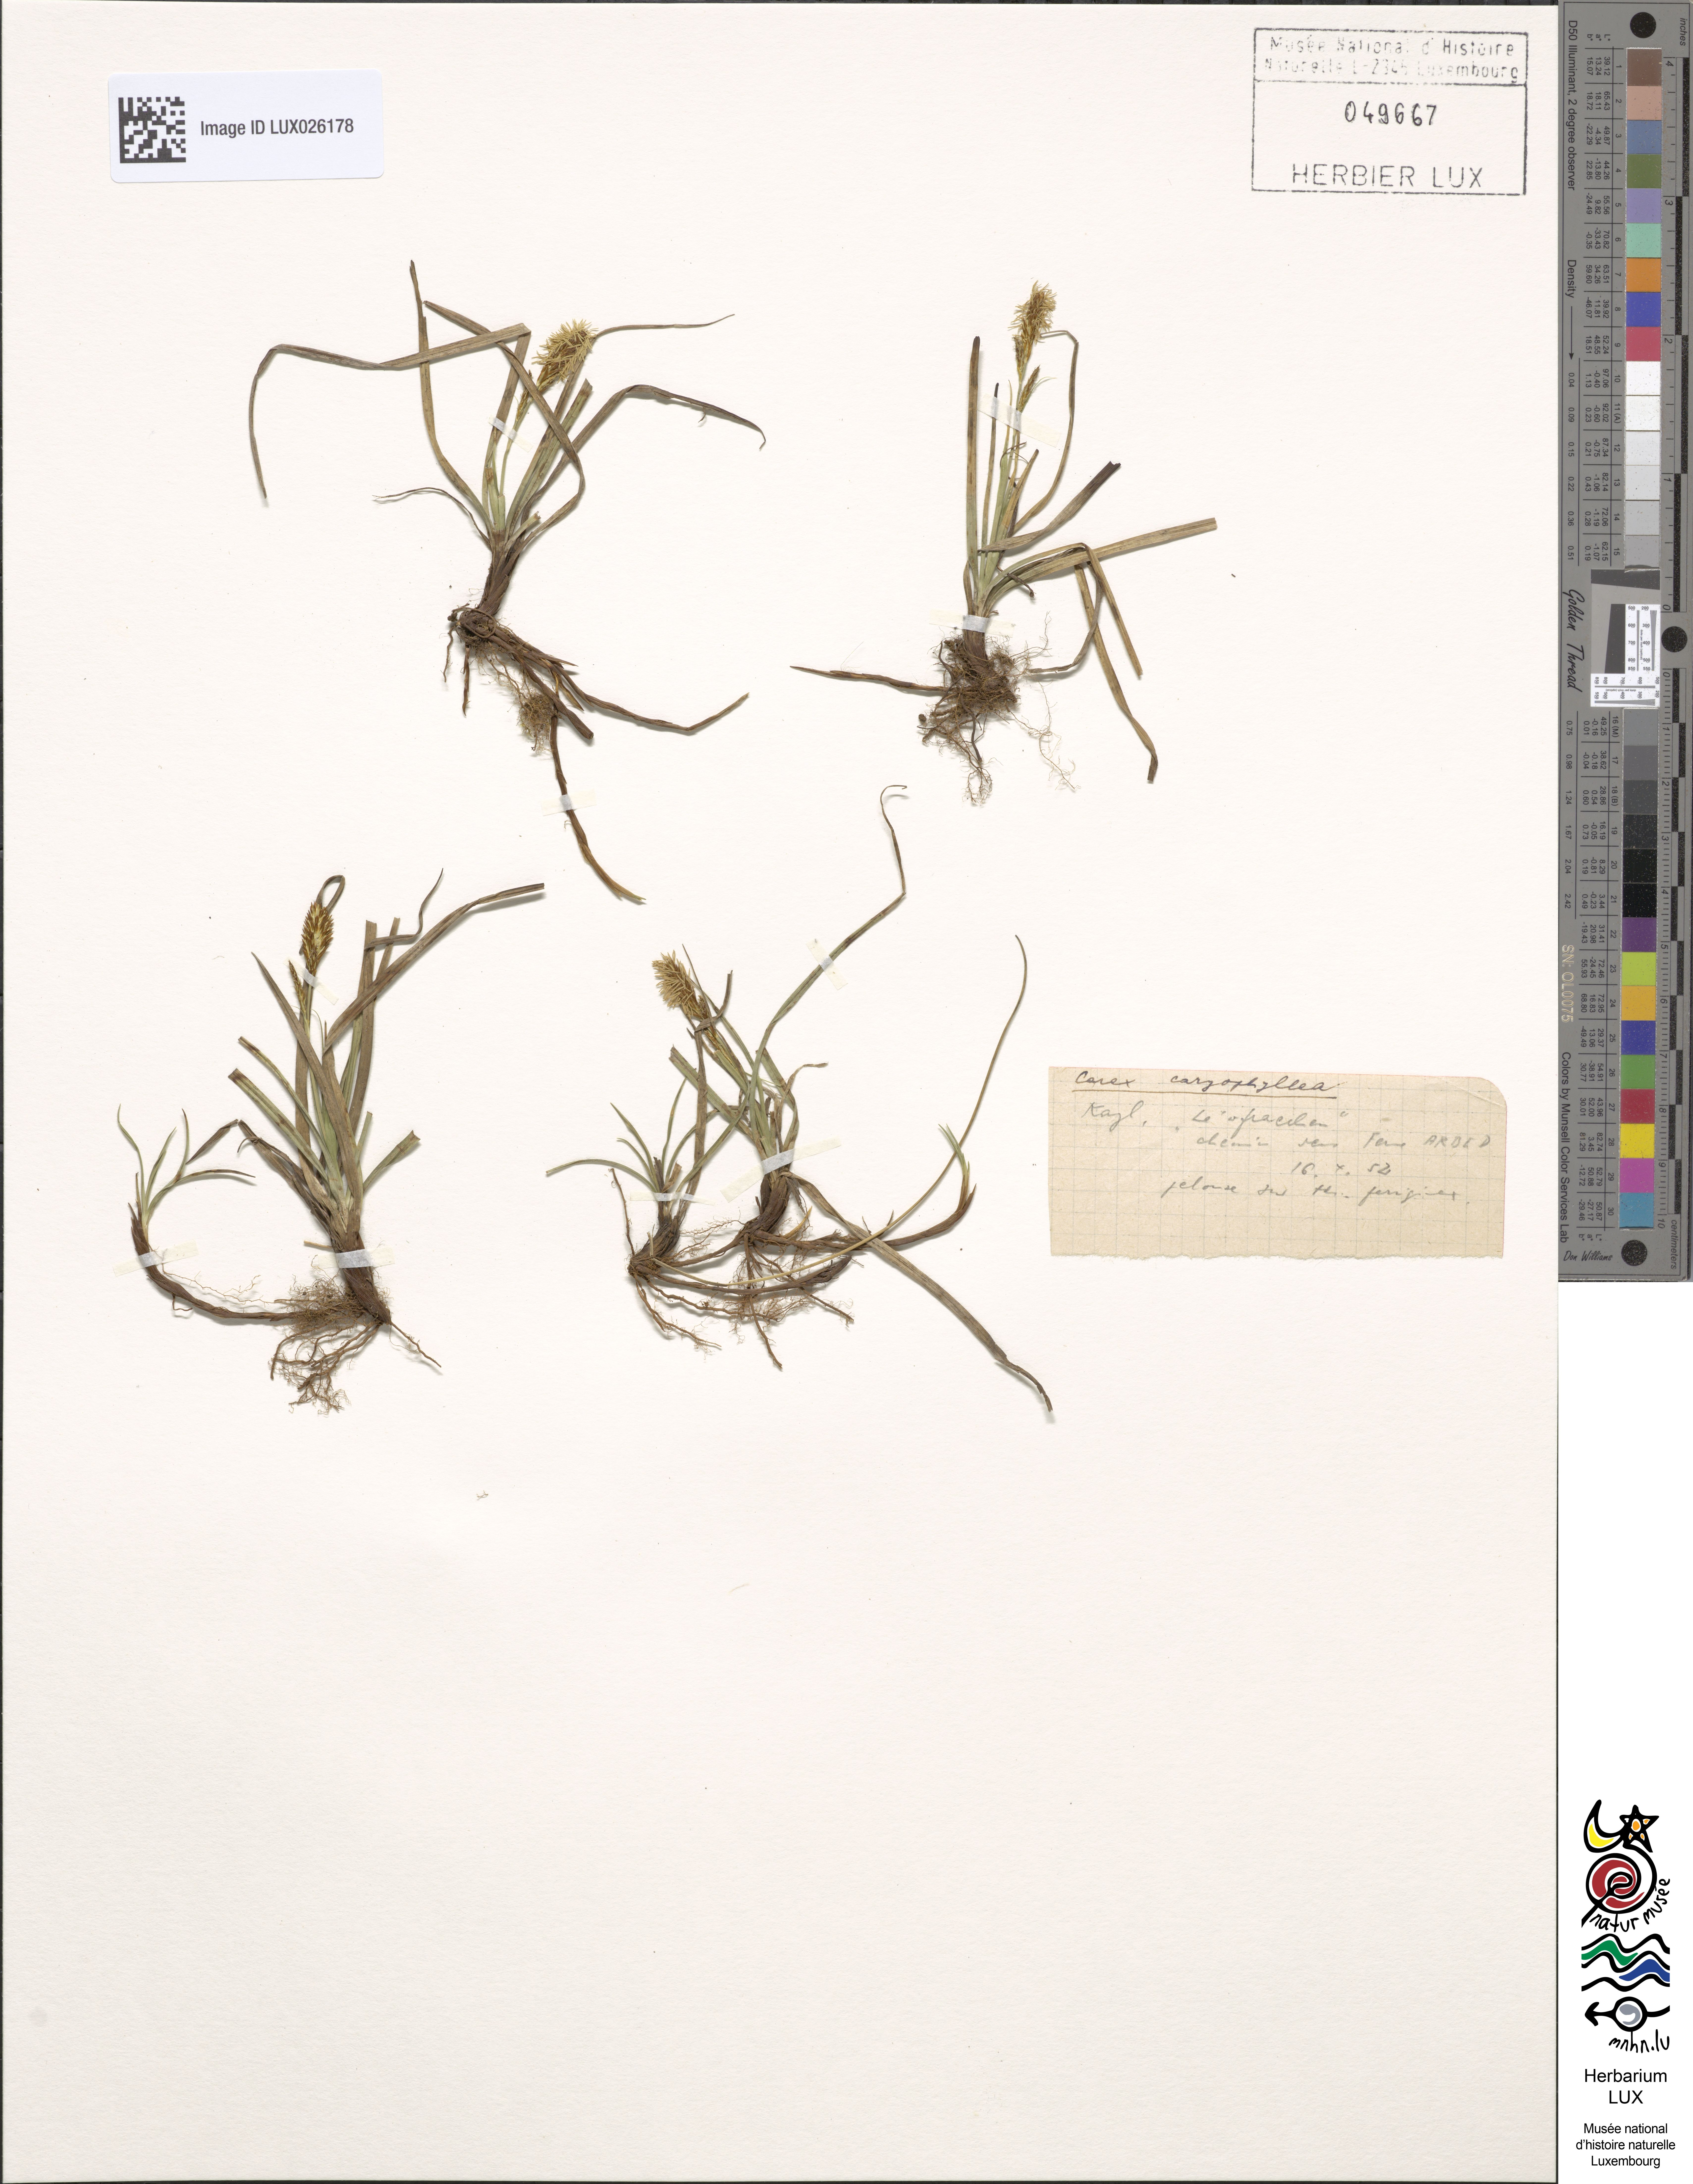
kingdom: Plantae
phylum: Tracheophyta
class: Liliopsida
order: Poales
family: Cyperaceae
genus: Carex
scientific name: Carex caryophyllea
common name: Spring sedge
